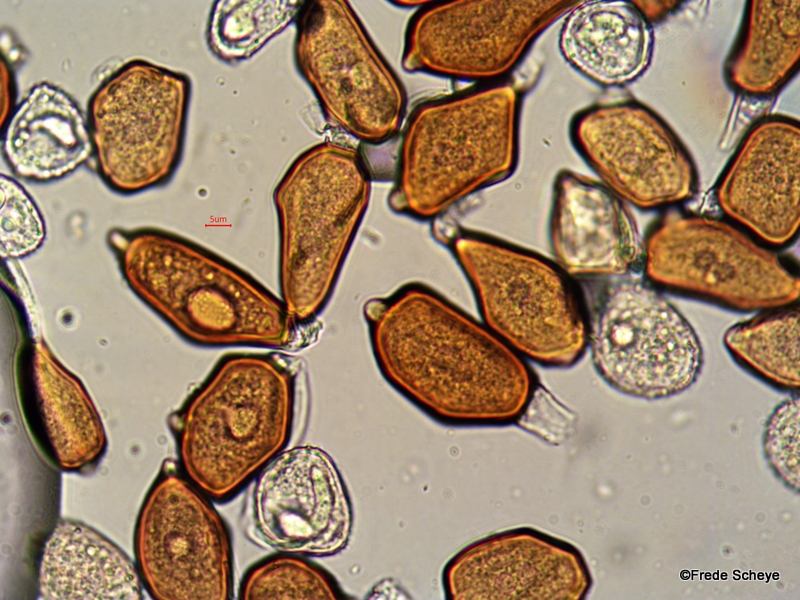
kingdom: Fungi
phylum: Basidiomycota
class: Pucciniomycetes
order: Pucciniales
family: Pucciniaceae
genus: Uromyces
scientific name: Uromyces ficariae
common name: vorterod-encellerust
